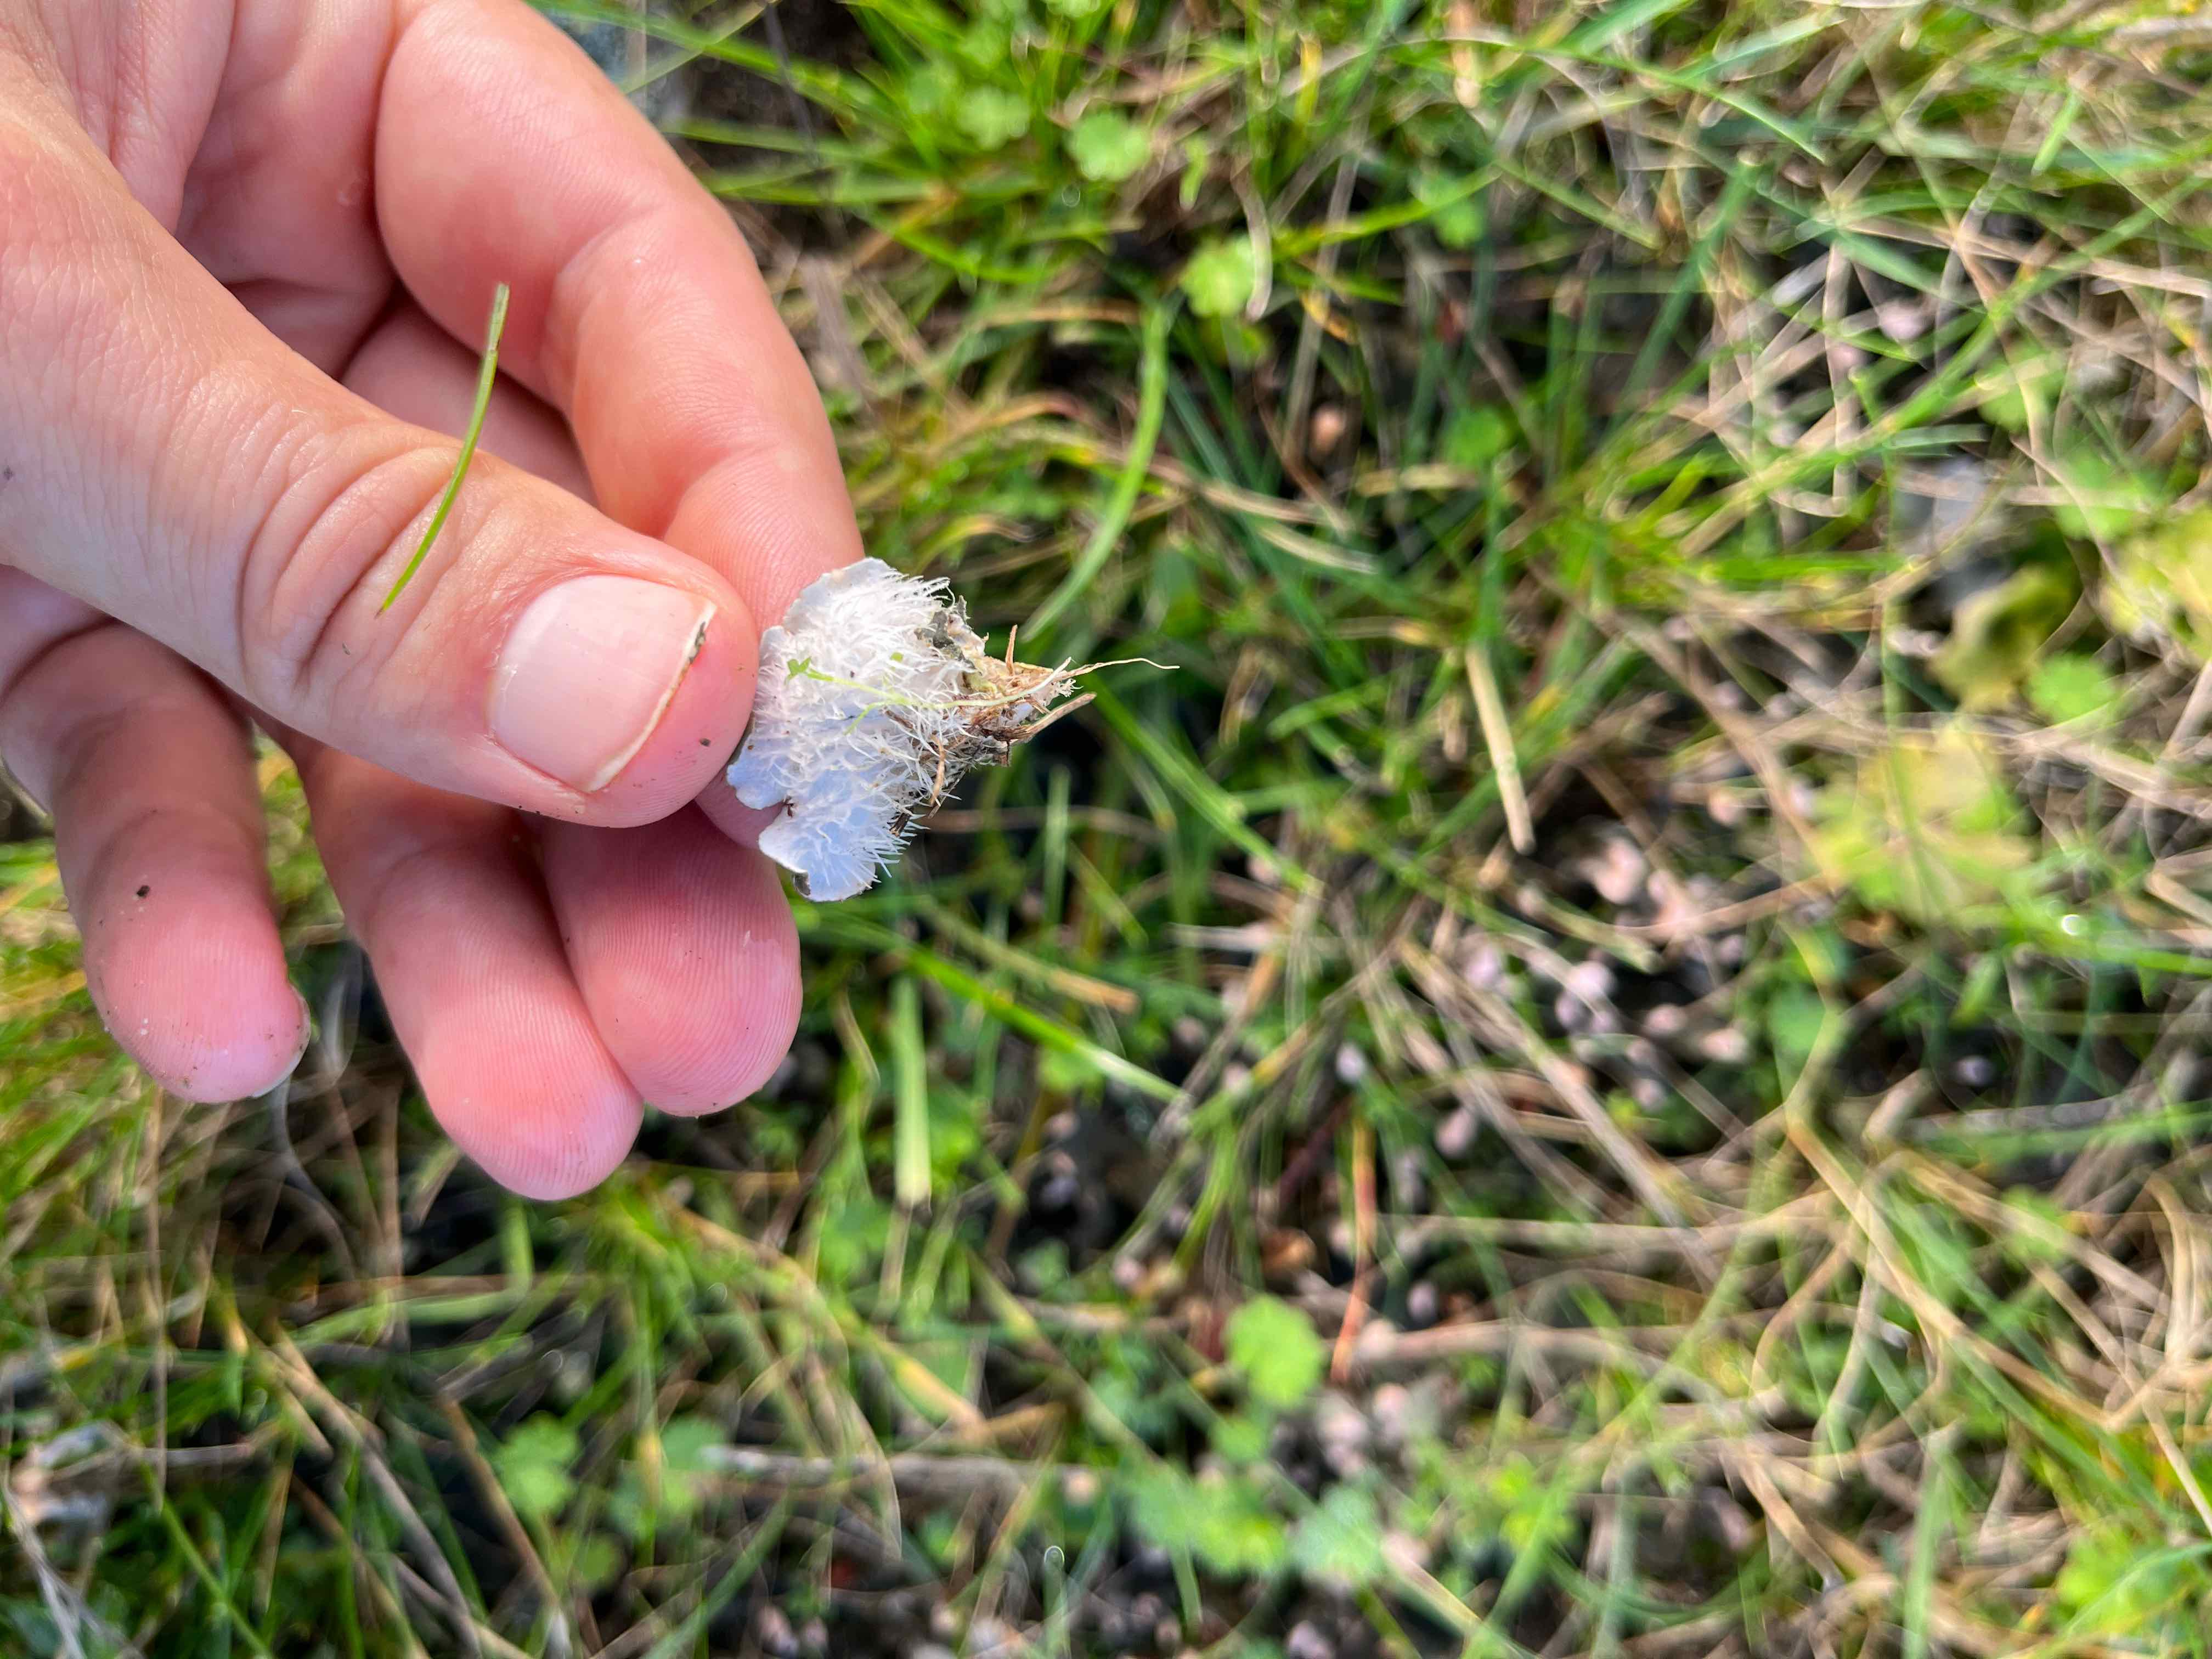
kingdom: Fungi
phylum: Ascomycota
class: Lecanoromycetes
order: Peltigerales
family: Peltigeraceae
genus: Peltigera
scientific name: Peltigera didactyla
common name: liden skjoldlav
